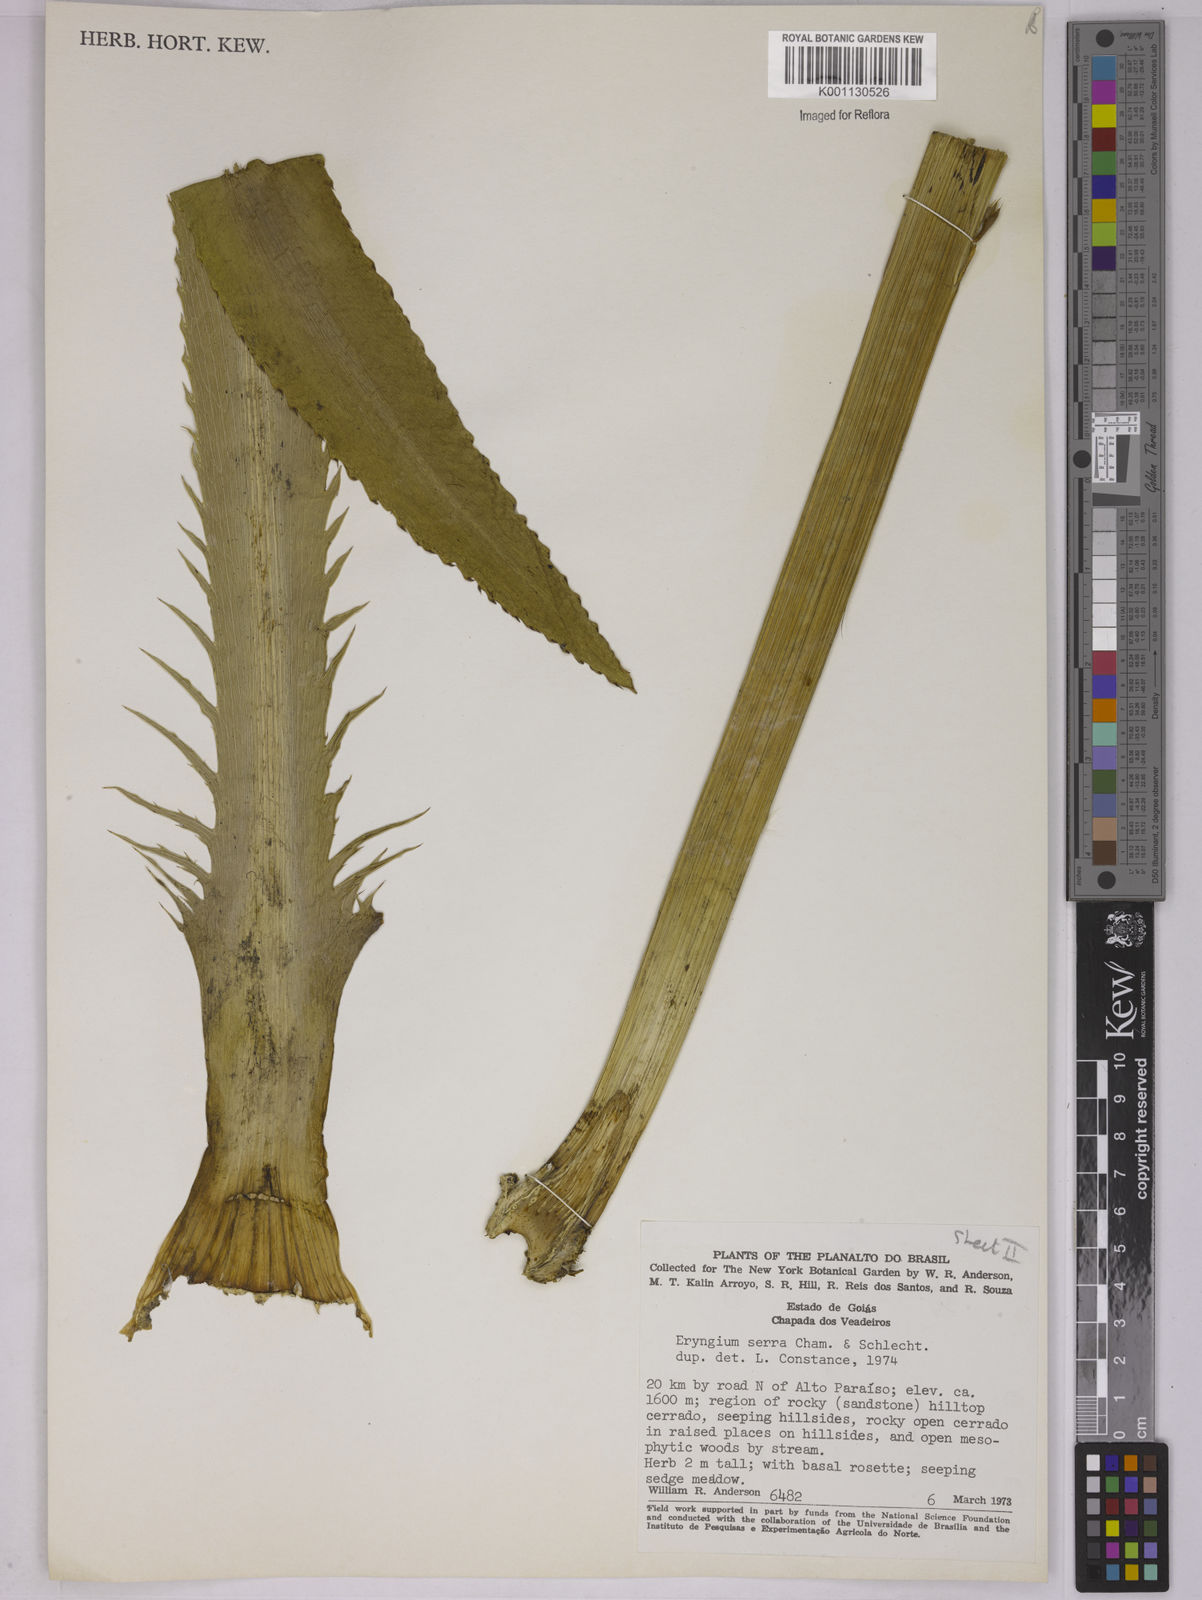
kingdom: Plantae
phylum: Tracheophyta
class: Magnoliopsida
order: Apiales
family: Apiaceae
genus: Eryngium
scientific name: Eryngium serra
